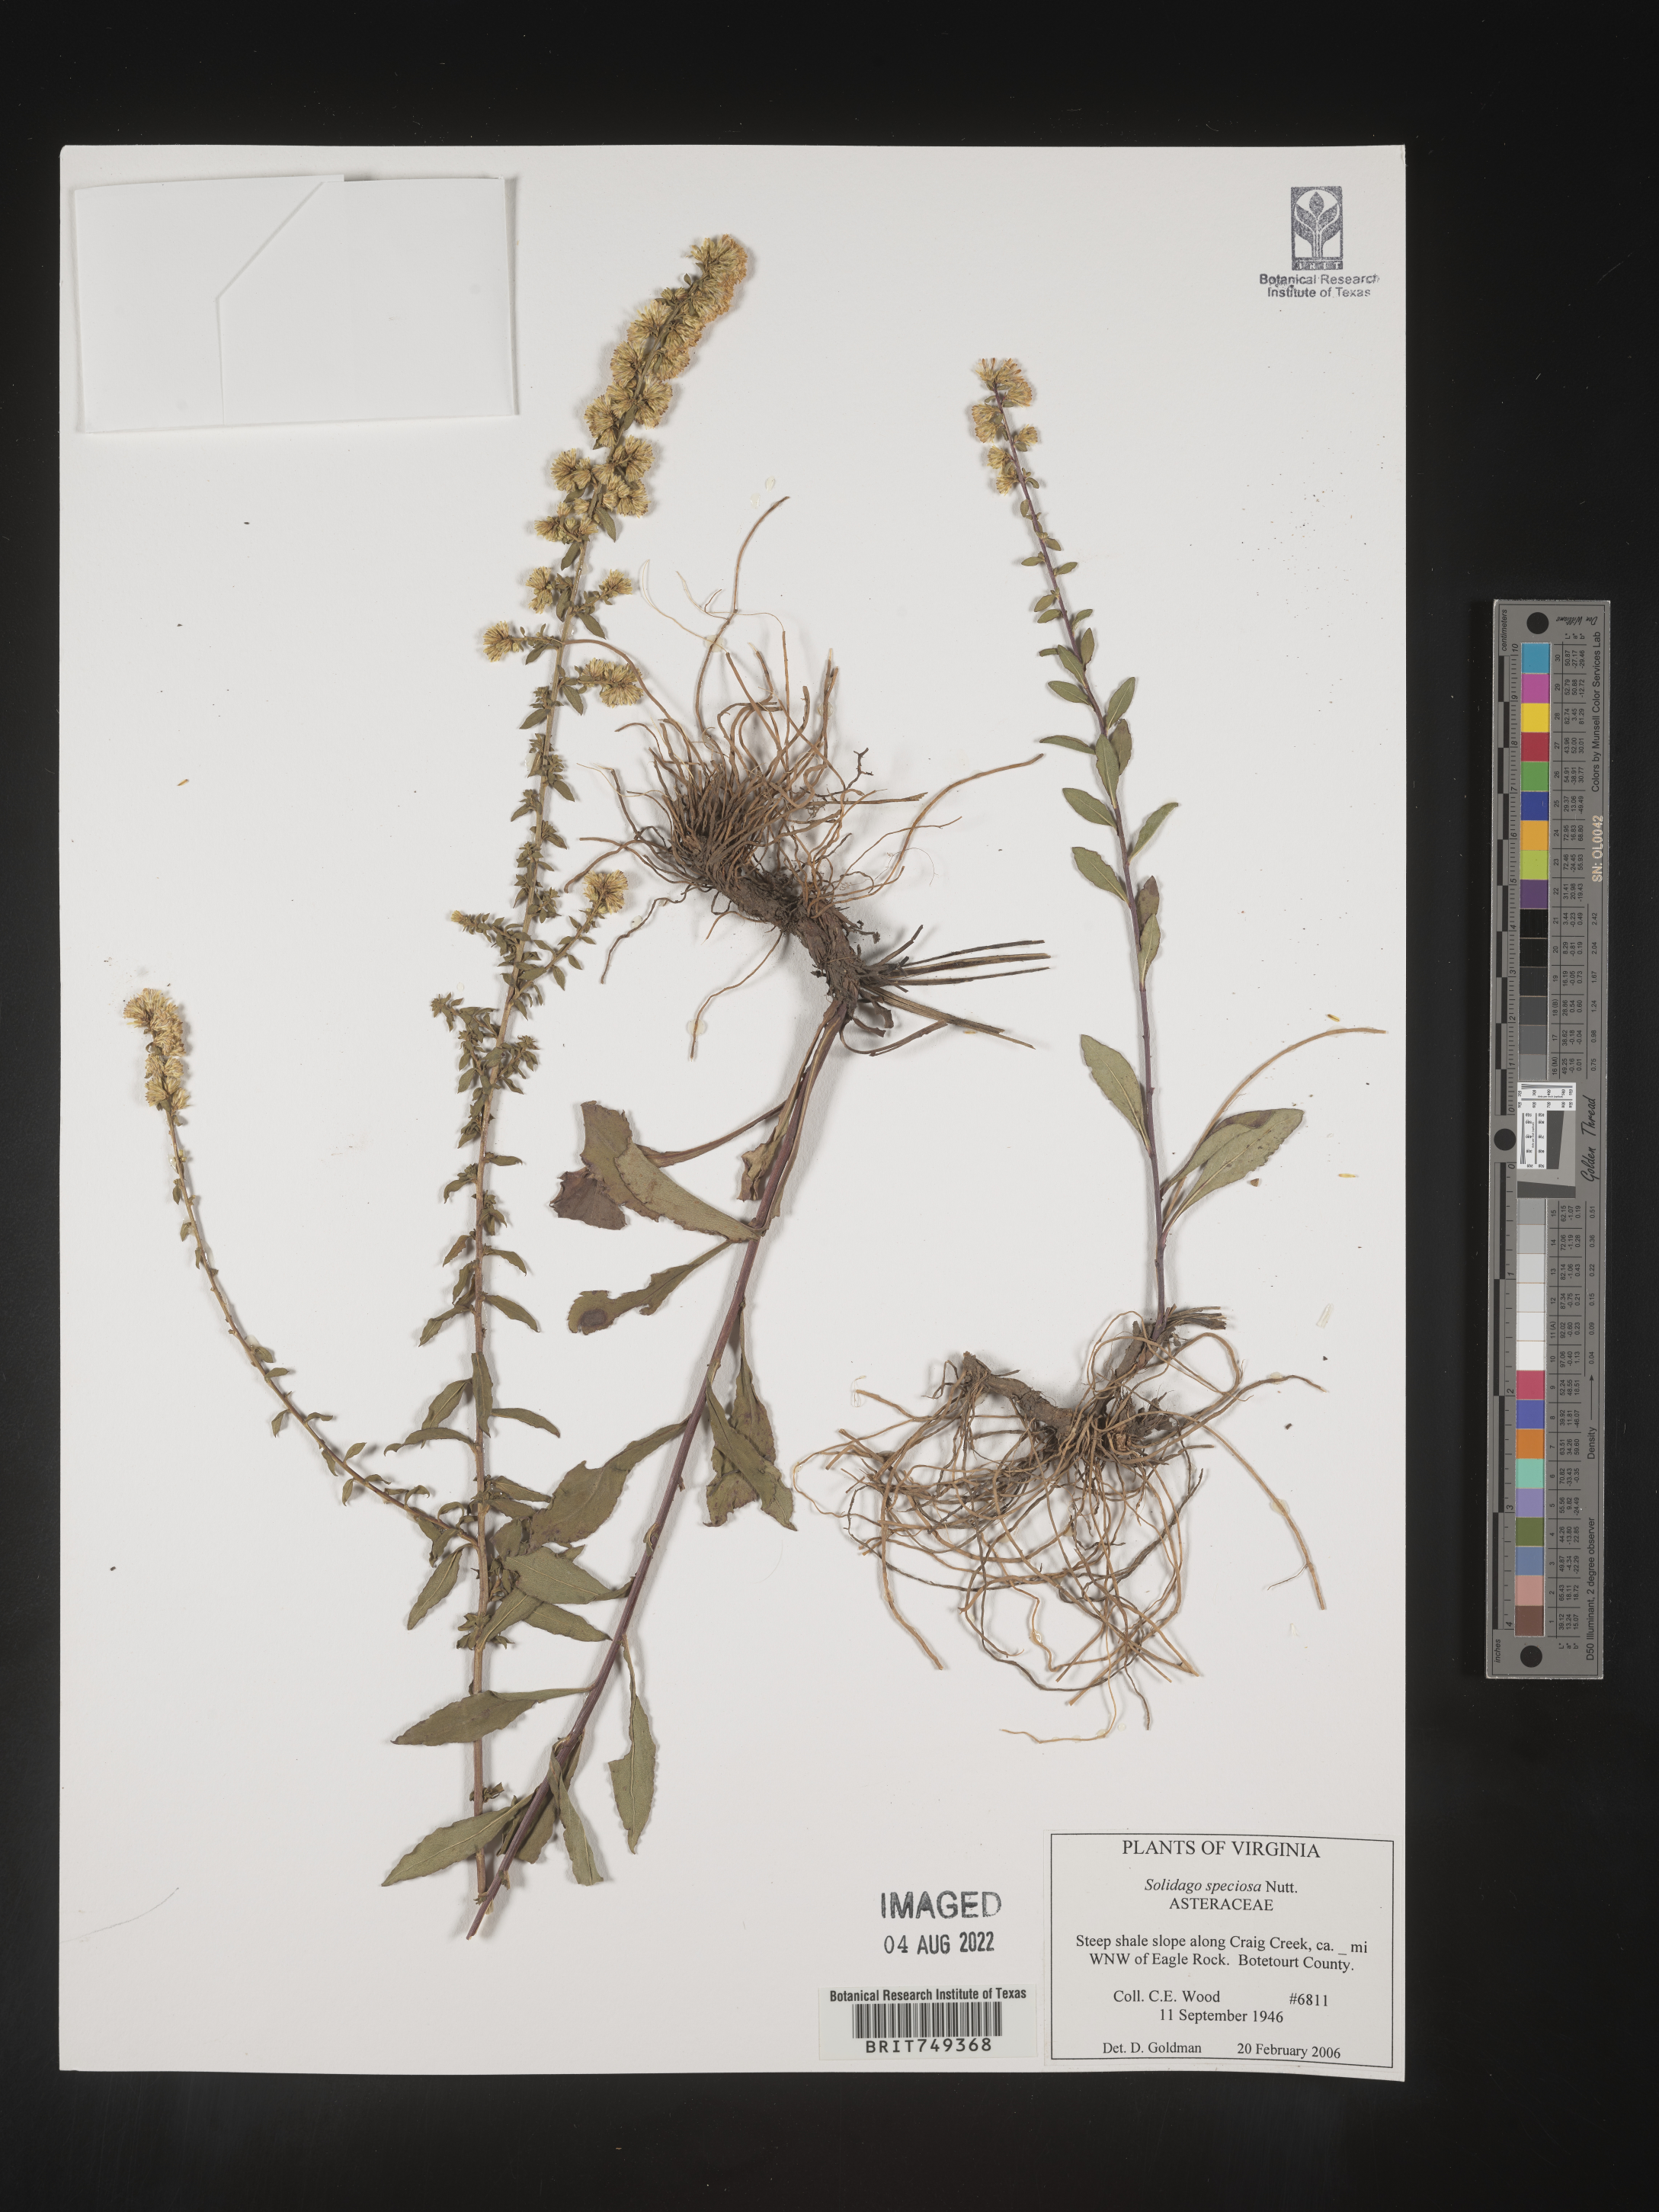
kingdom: Plantae
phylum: Tracheophyta
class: Magnoliopsida
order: Asterales
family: Asteraceae
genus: Solidago
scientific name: Solidago speciosa
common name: Showy goldenrod
